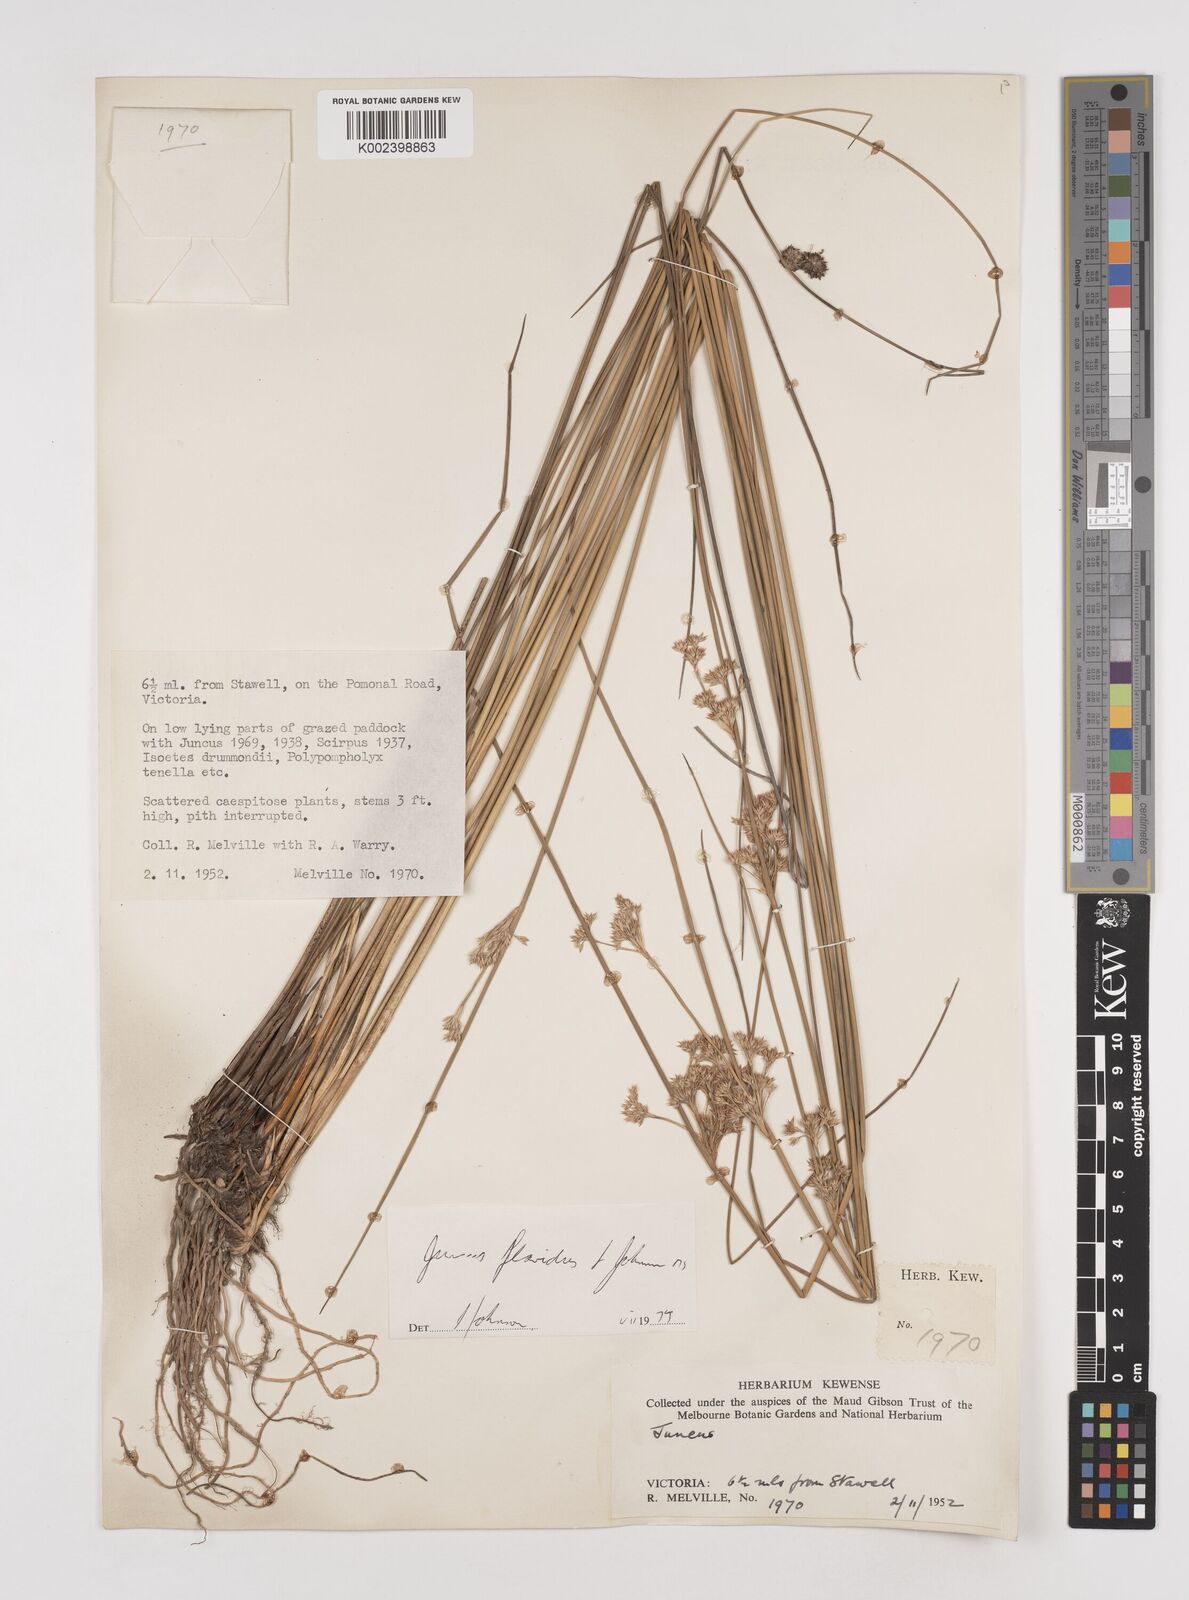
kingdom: Plantae
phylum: Tracheophyta
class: Liliopsida
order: Poales
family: Juncaceae
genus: Juncus
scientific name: Juncus flavidus
